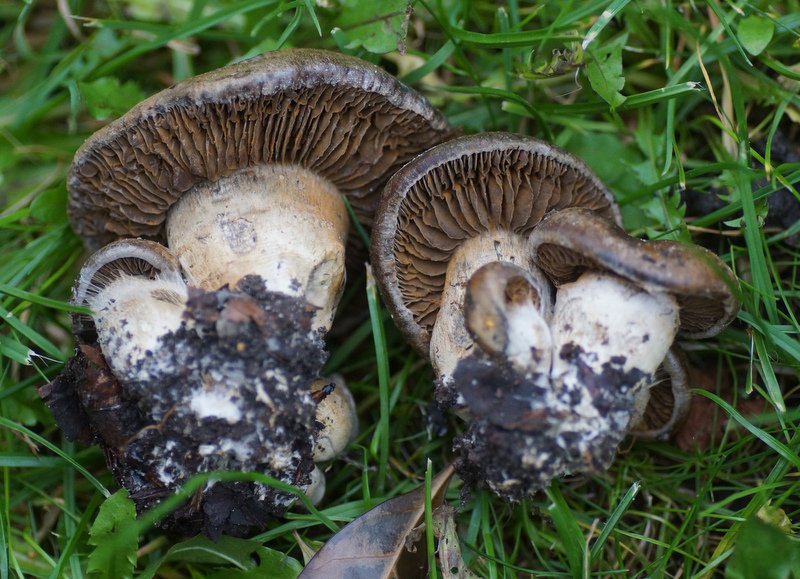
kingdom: Fungi
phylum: Basidiomycota
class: Agaricomycetes
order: Agaricales
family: Cortinariaceae
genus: Cortinarius
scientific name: Cortinarius
